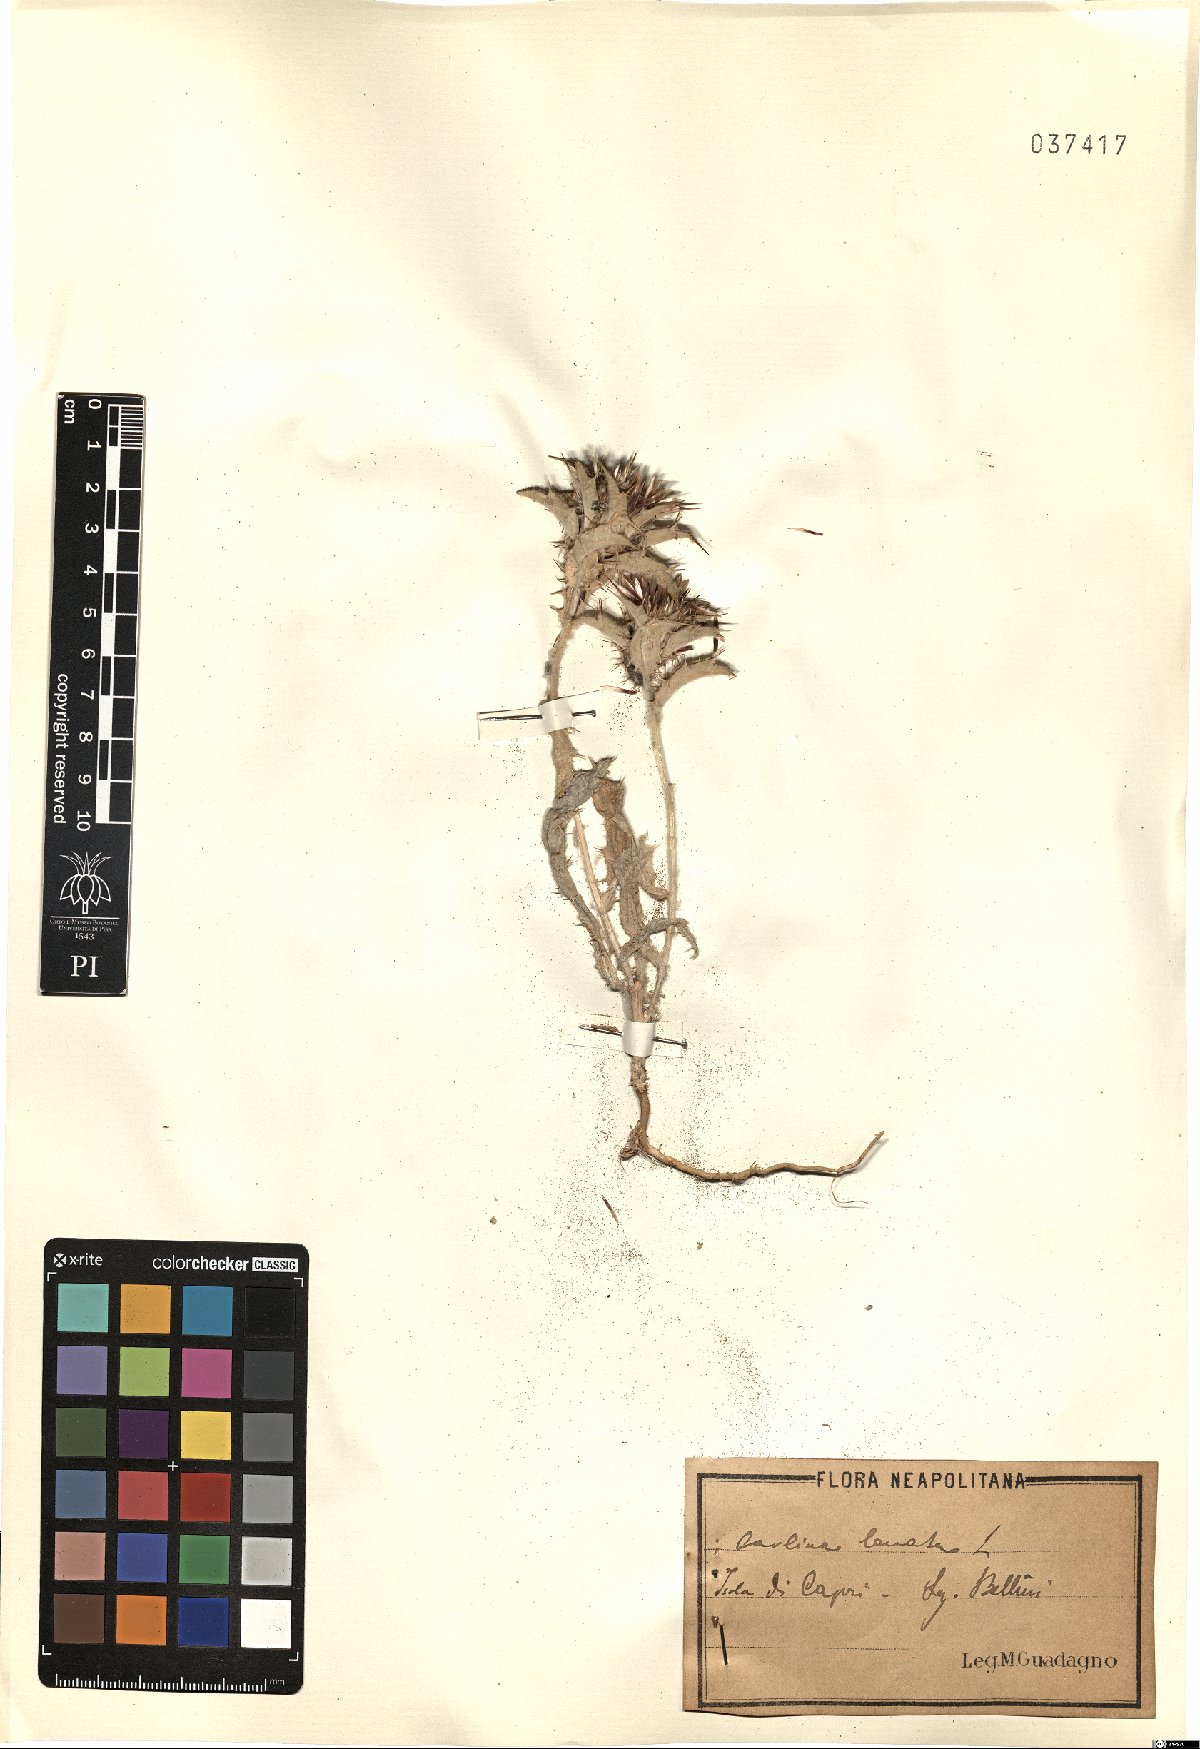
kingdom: Plantae
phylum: Tracheophyta
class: Magnoliopsida
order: Asterales
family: Asteraceae
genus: Carlina
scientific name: Carlina lanata
